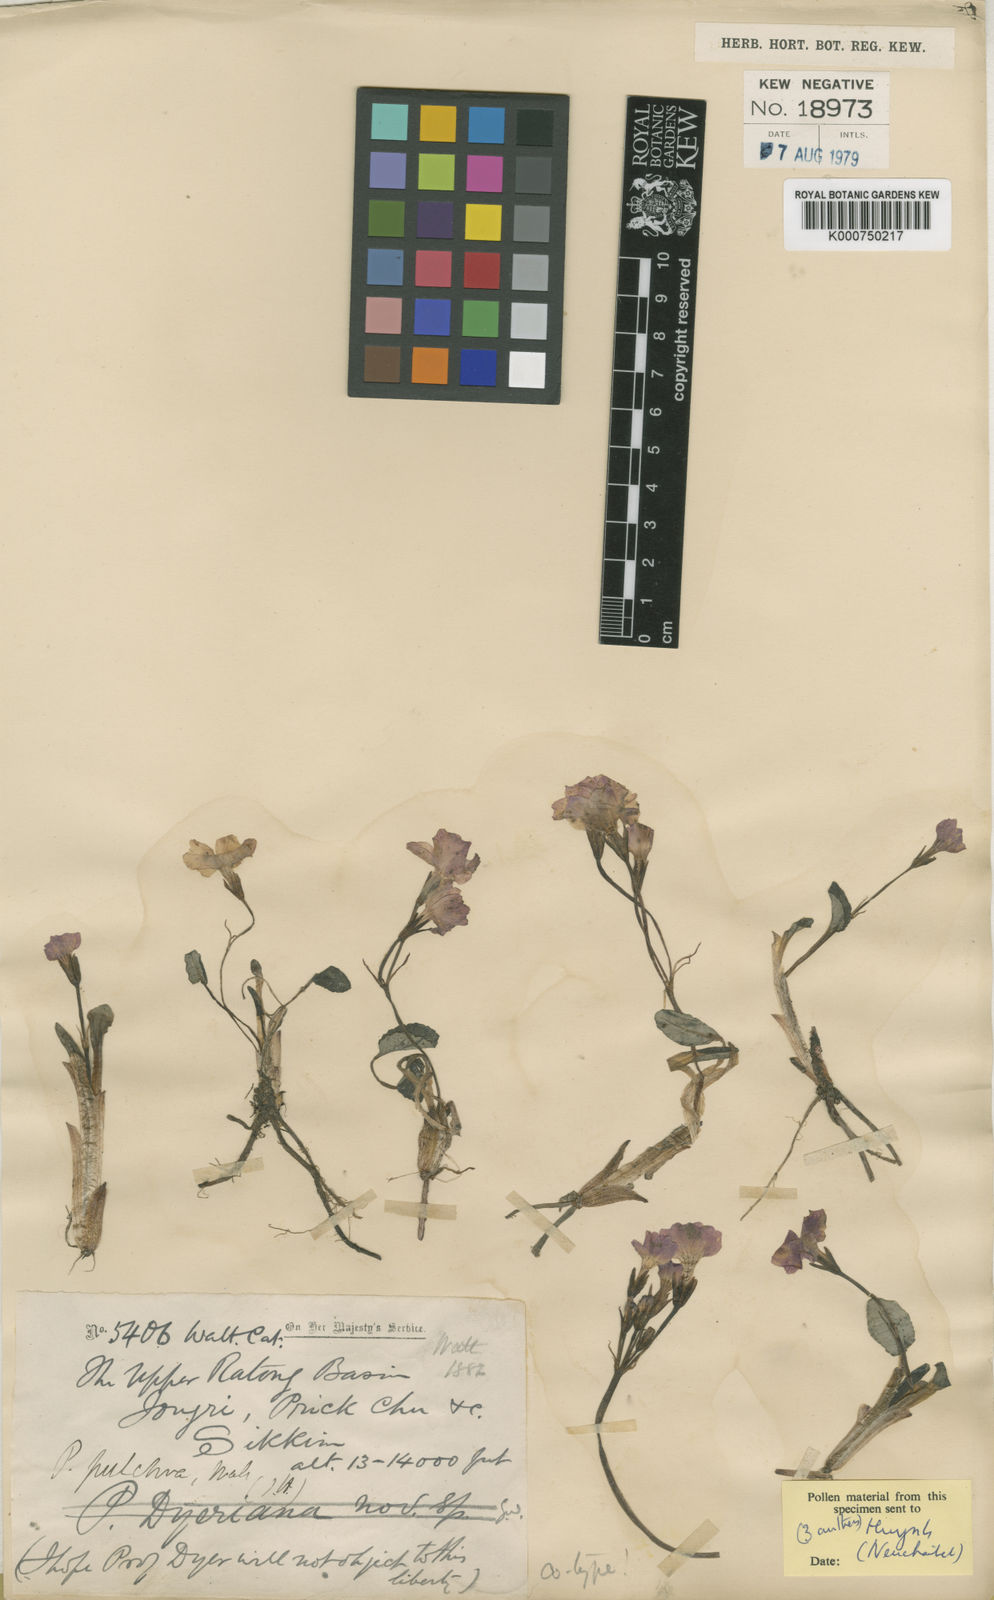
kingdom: Plantae
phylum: Tracheophyta
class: Magnoliopsida
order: Ericales
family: Primulaceae
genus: Primula
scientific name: Primula pulchra
